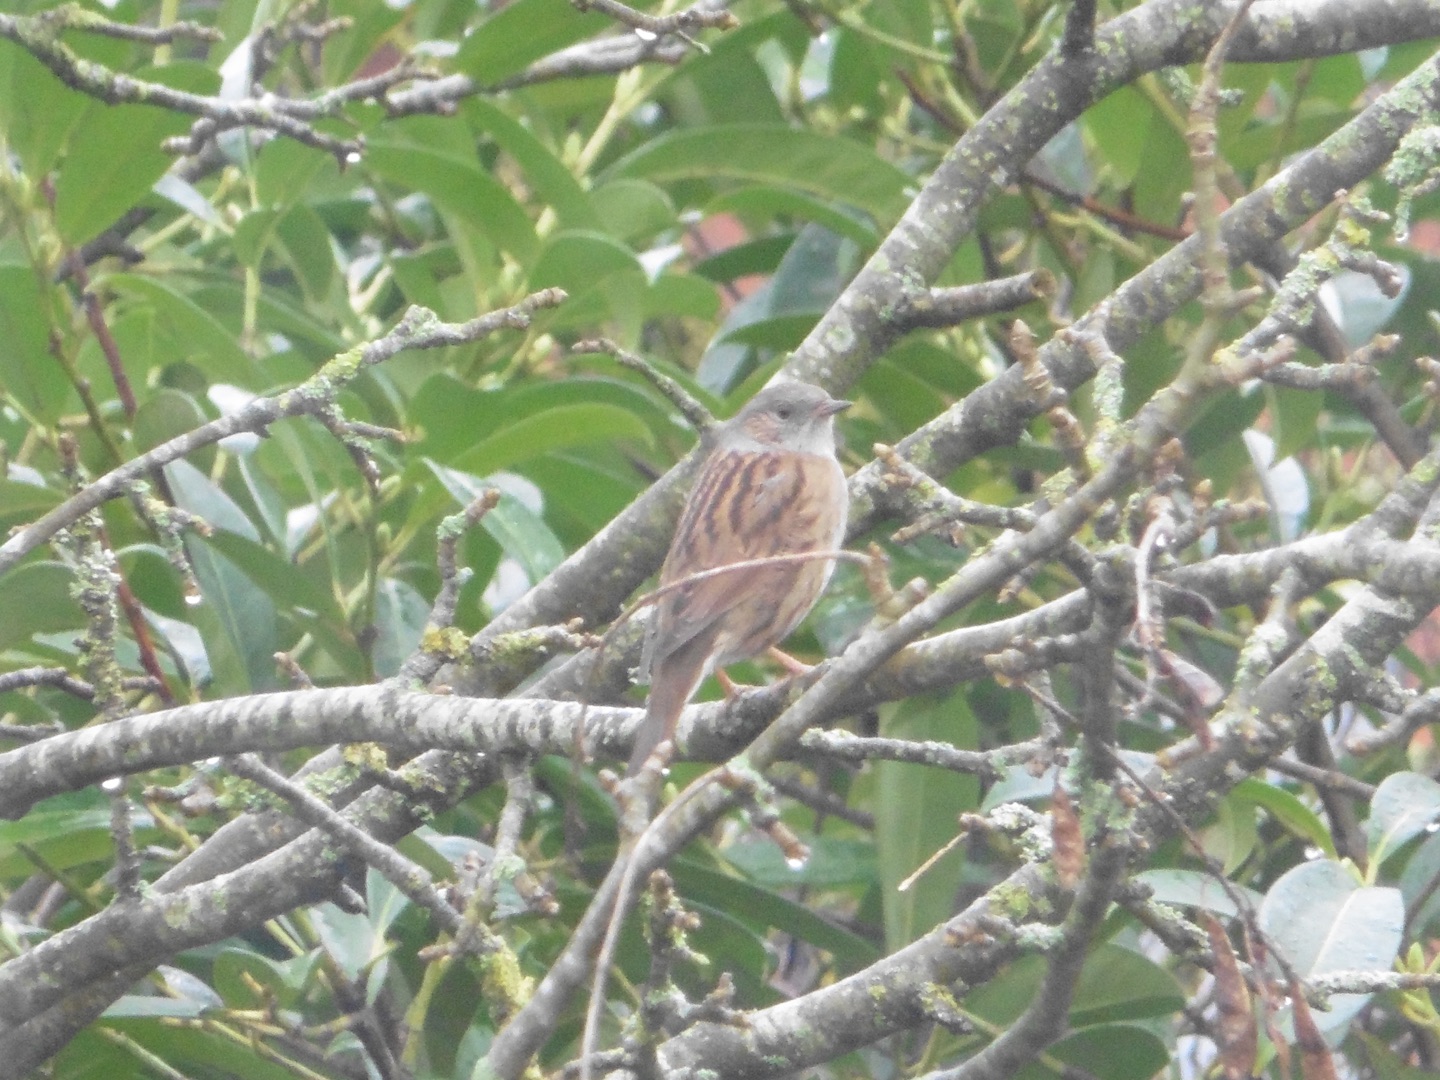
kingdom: Animalia
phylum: Chordata
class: Aves
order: Passeriformes
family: Prunellidae
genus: Prunella
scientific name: Prunella modularis
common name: Jernspurv
